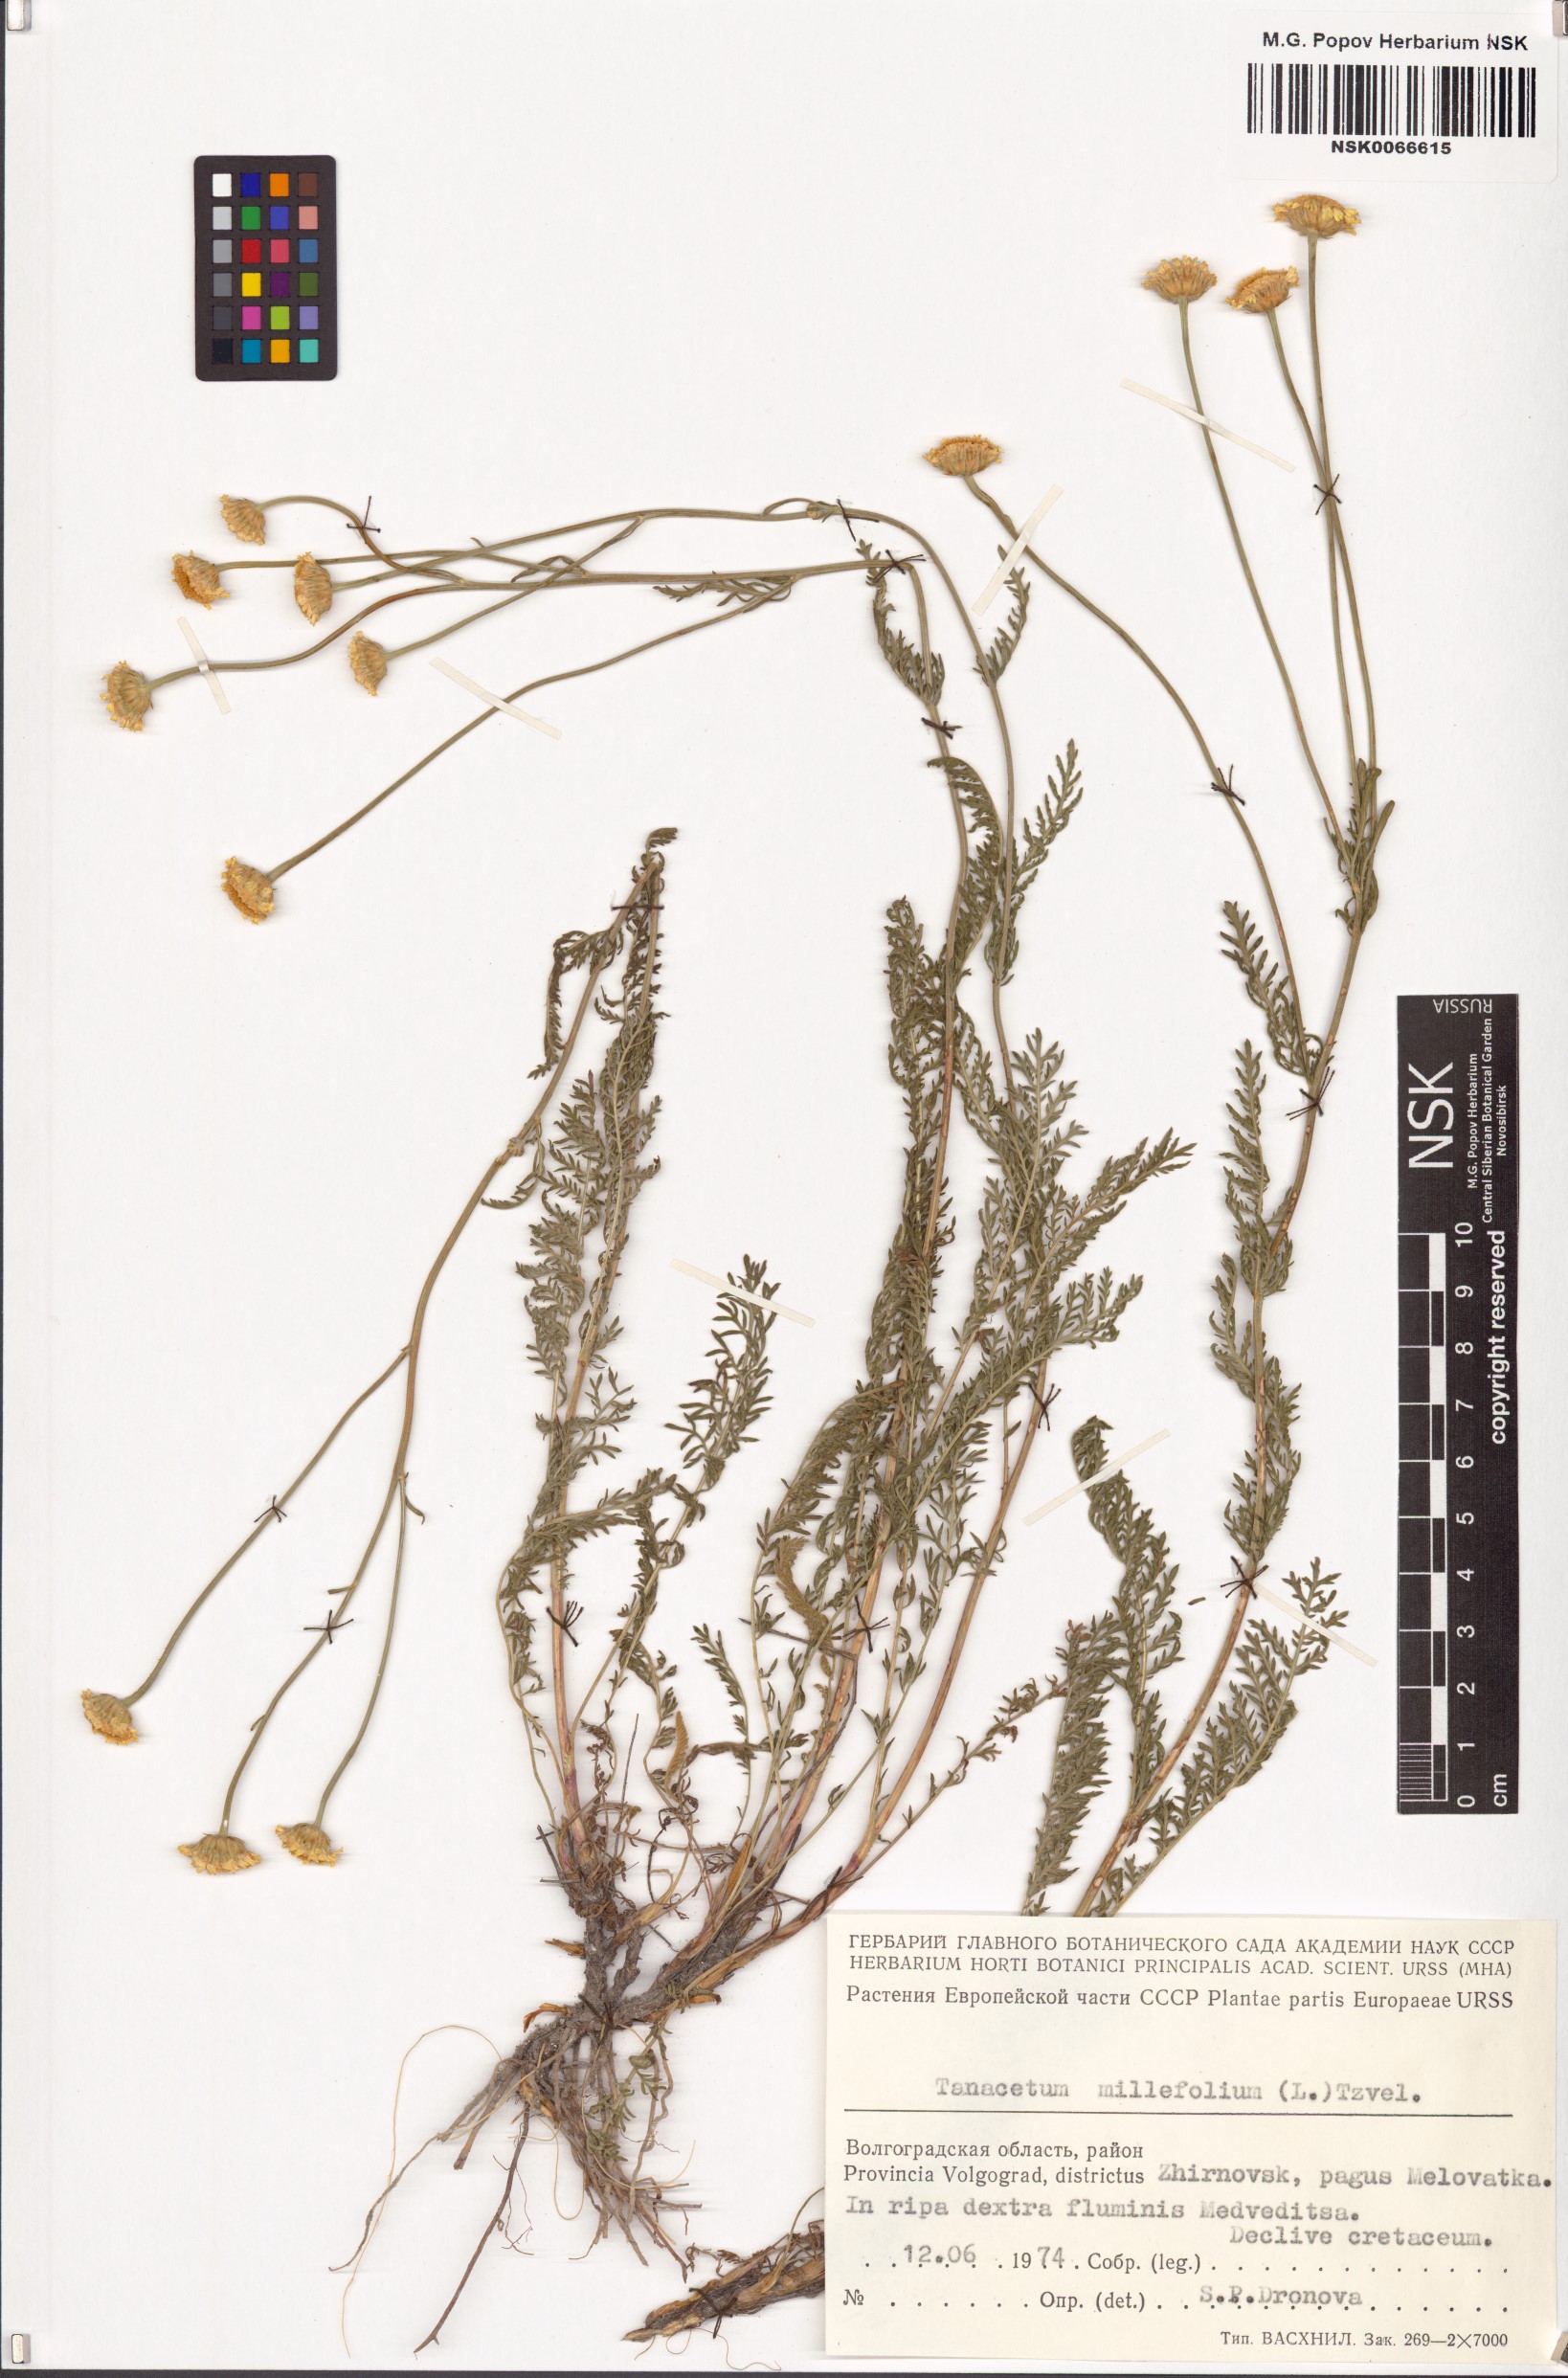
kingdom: Plantae
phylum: Tracheophyta
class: Magnoliopsida
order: Asterales
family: Asteraceae
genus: Tanacetum
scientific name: Tanacetum millefolium
